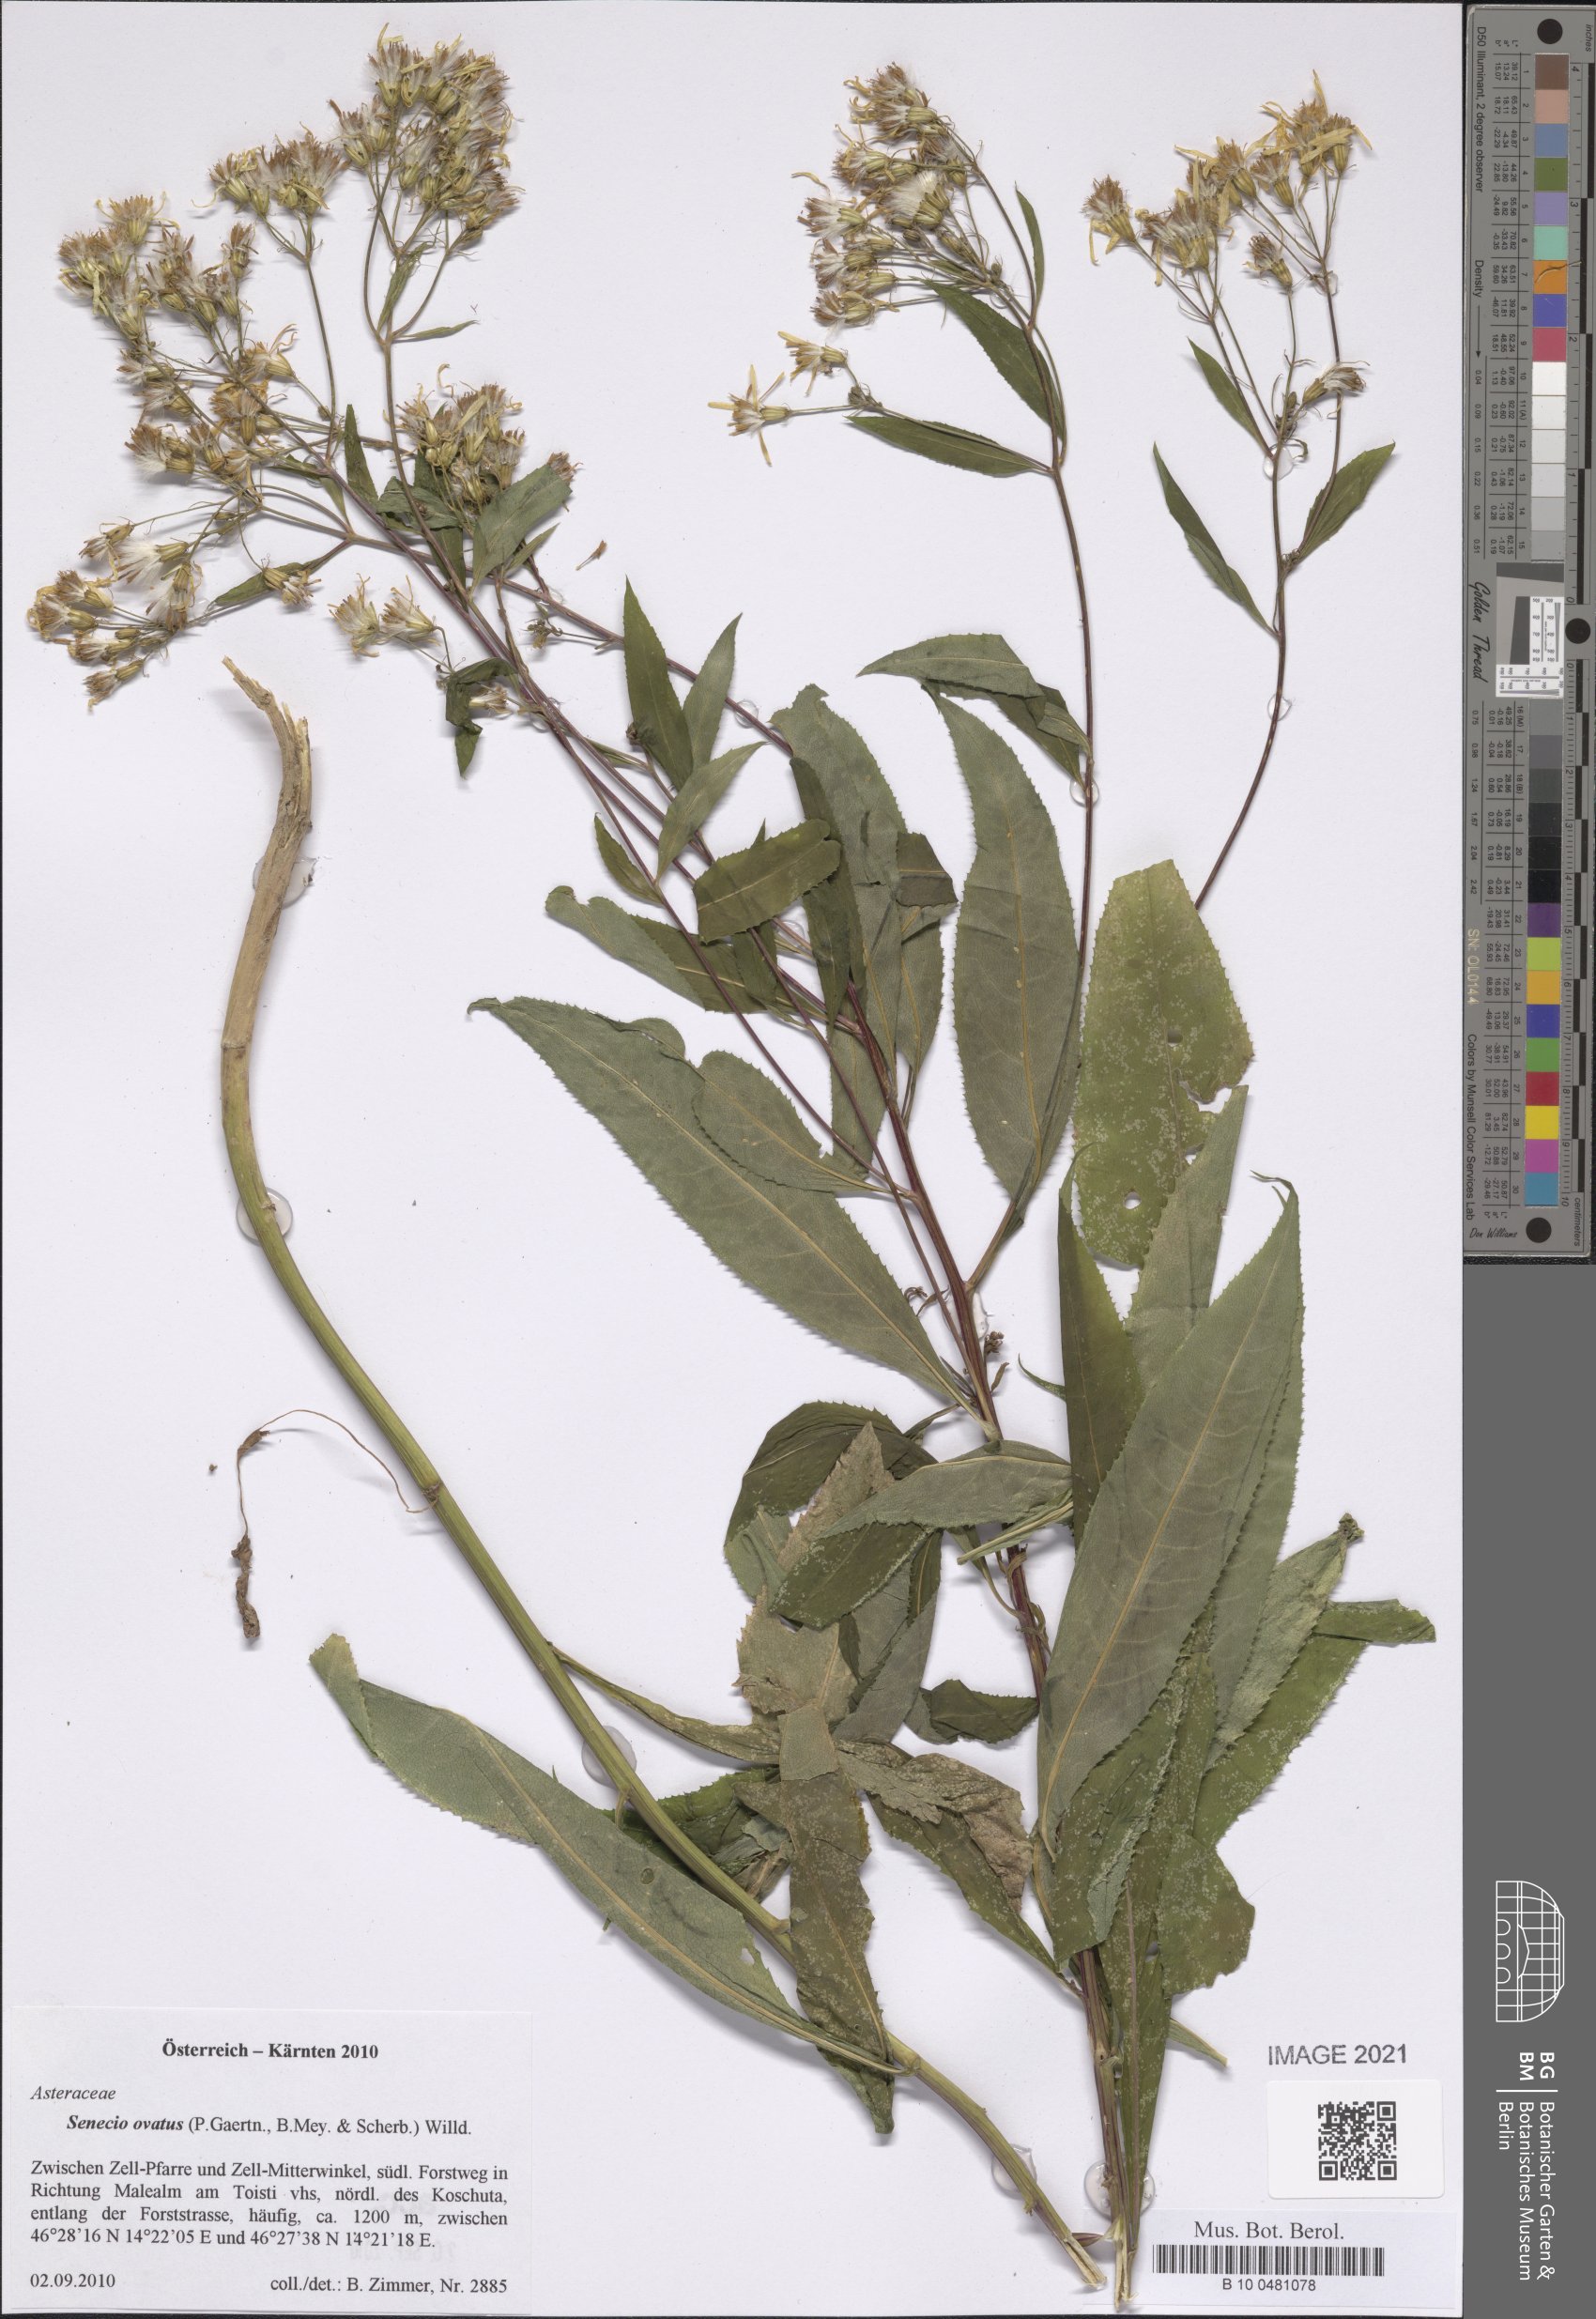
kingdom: Plantae
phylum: Tracheophyta
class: Magnoliopsida
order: Asterales
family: Asteraceae
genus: Senecio
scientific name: Senecio ovatus
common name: Wood ragwort
